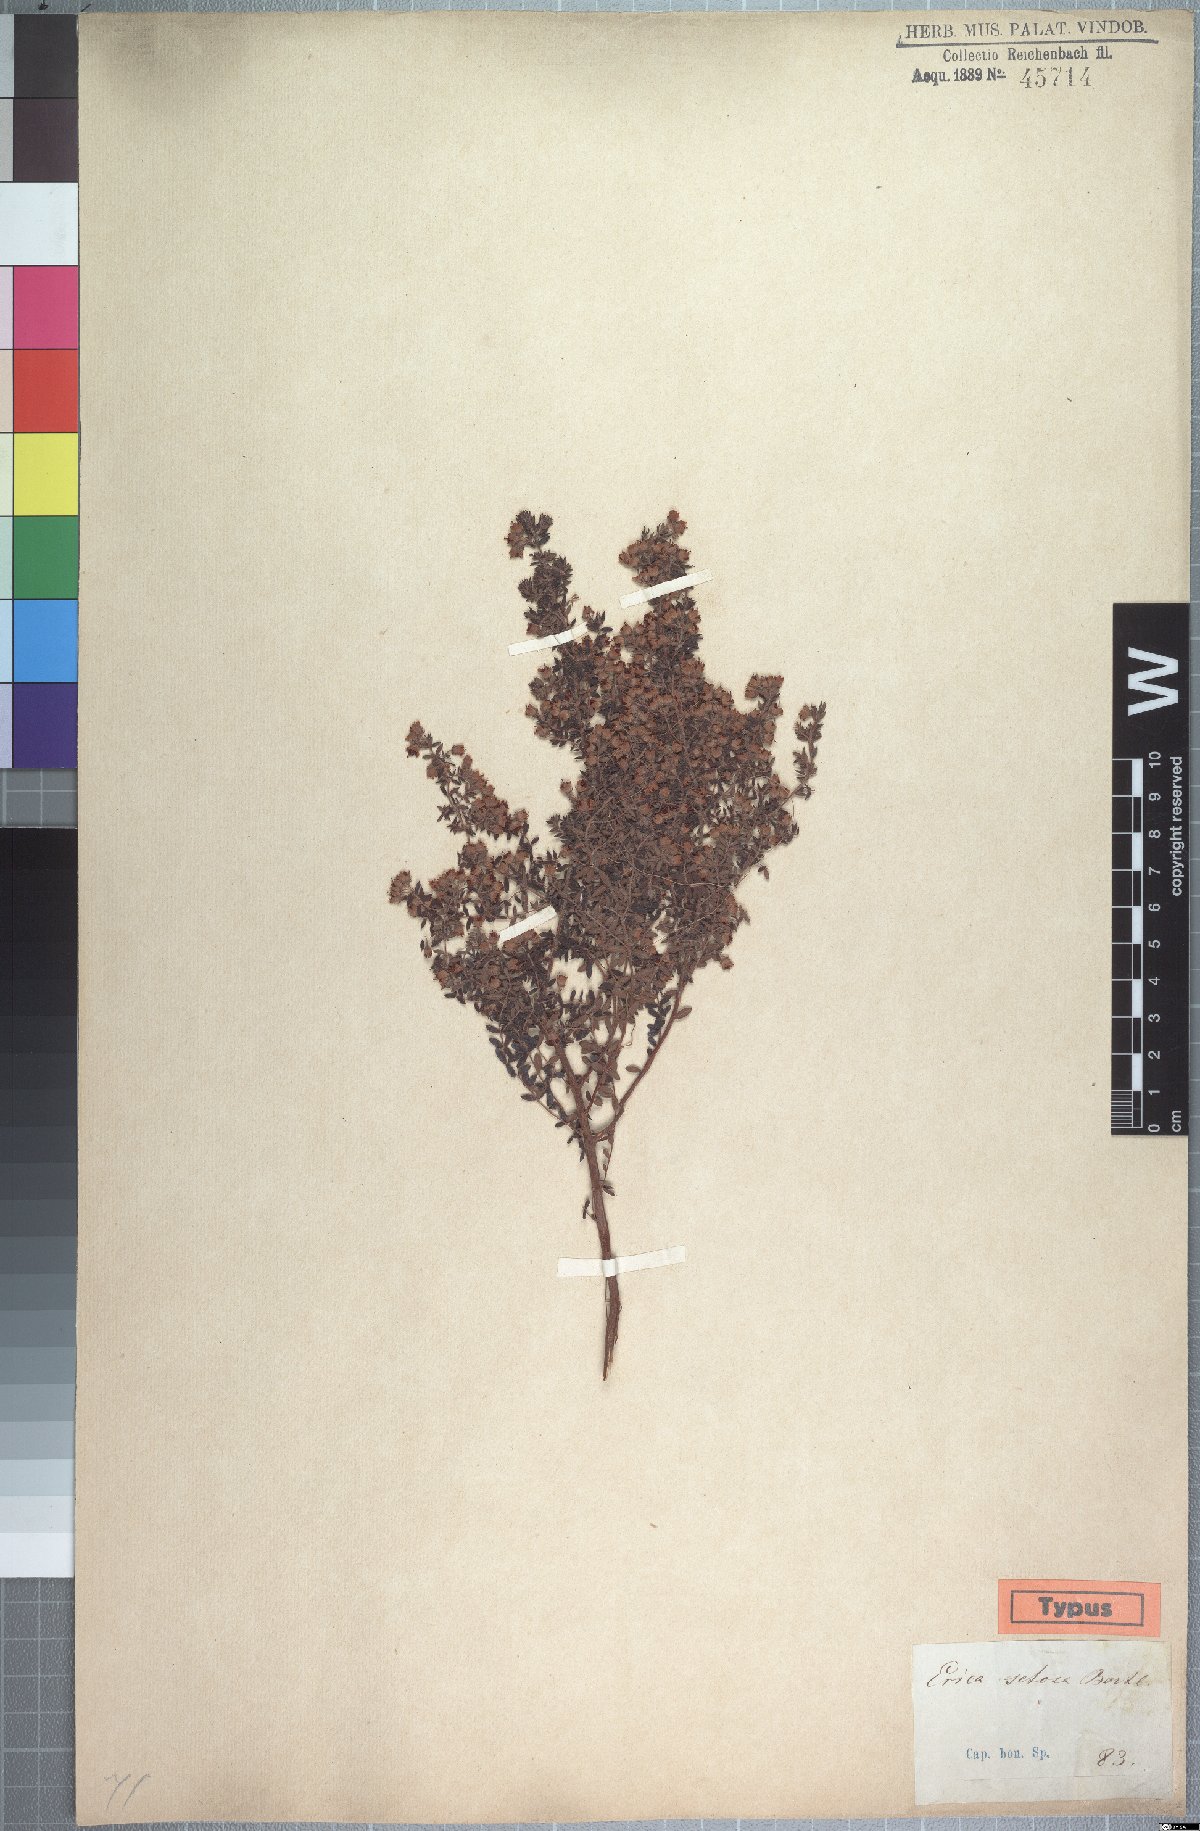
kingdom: Plantae
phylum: Tracheophyta
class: Magnoliopsida
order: Ericales
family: Ericaceae
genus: Erica
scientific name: Erica setosa
